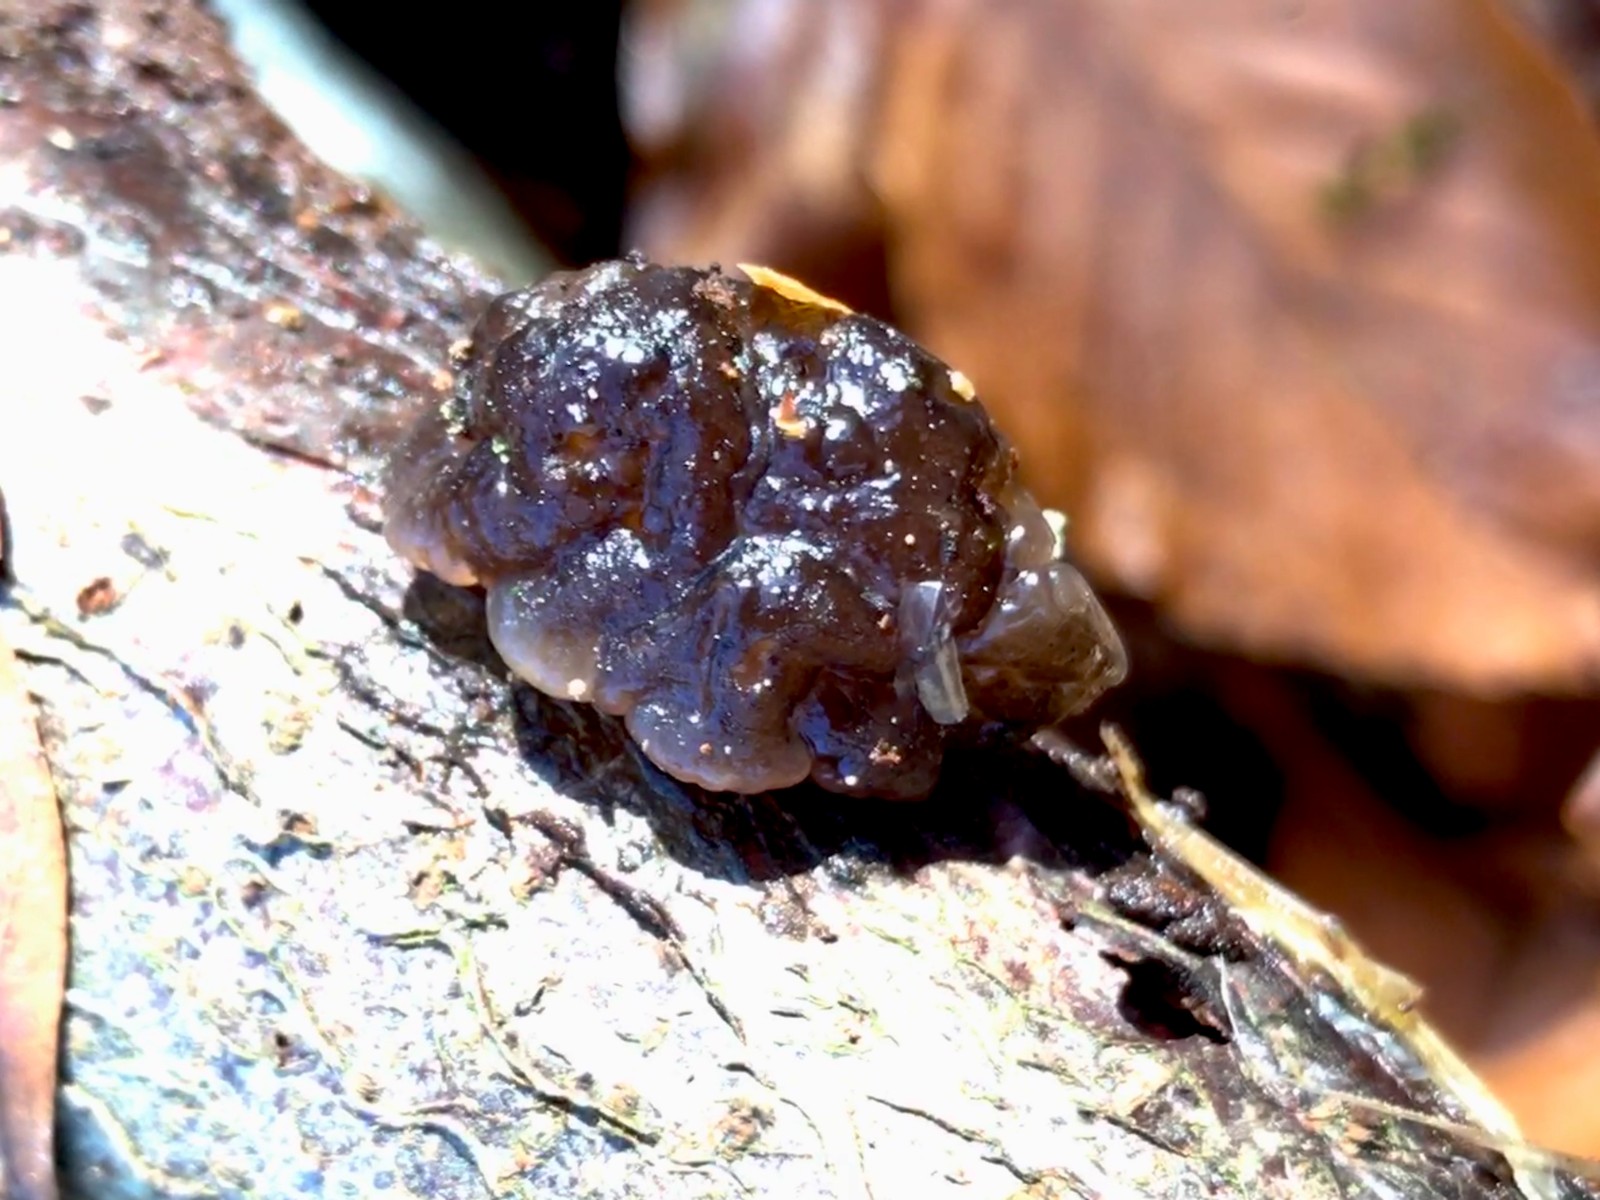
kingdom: Fungi
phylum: Basidiomycota
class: Agaricomycetes
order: Auriculariales
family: Auriculariaceae
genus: Exidia
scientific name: Exidia nigricans
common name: almindelig bævretop
